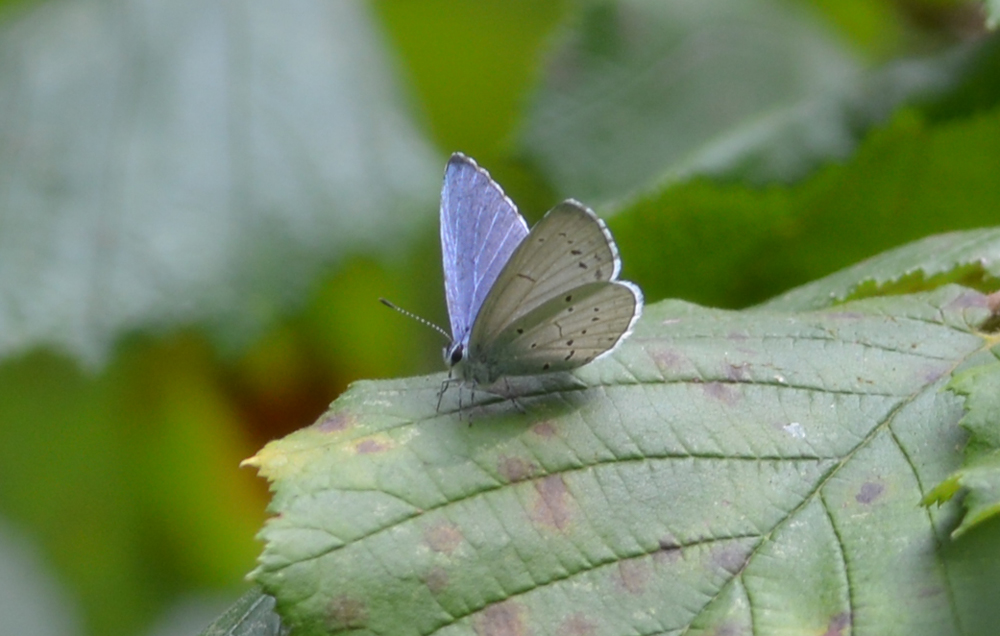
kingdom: Animalia
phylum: Arthropoda
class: Insecta
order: Lepidoptera
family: Lycaenidae
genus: Celastrina
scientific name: Celastrina argiolus
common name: Holly blue
